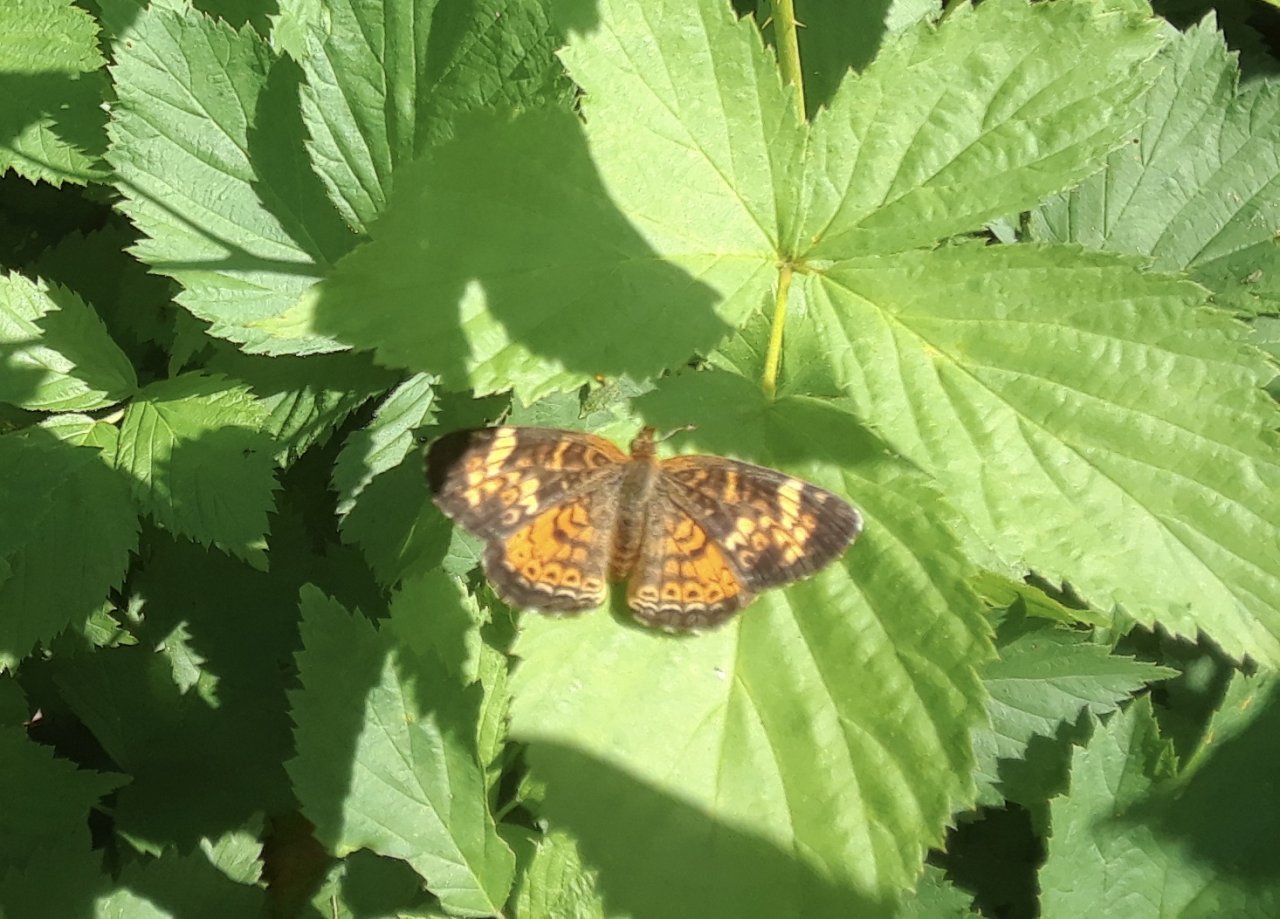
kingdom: Animalia
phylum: Arthropoda
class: Insecta
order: Lepidoptera
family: Nymphalidae
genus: Phyciodes
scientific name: Phyciodes tharos
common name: Pearl Crescent
